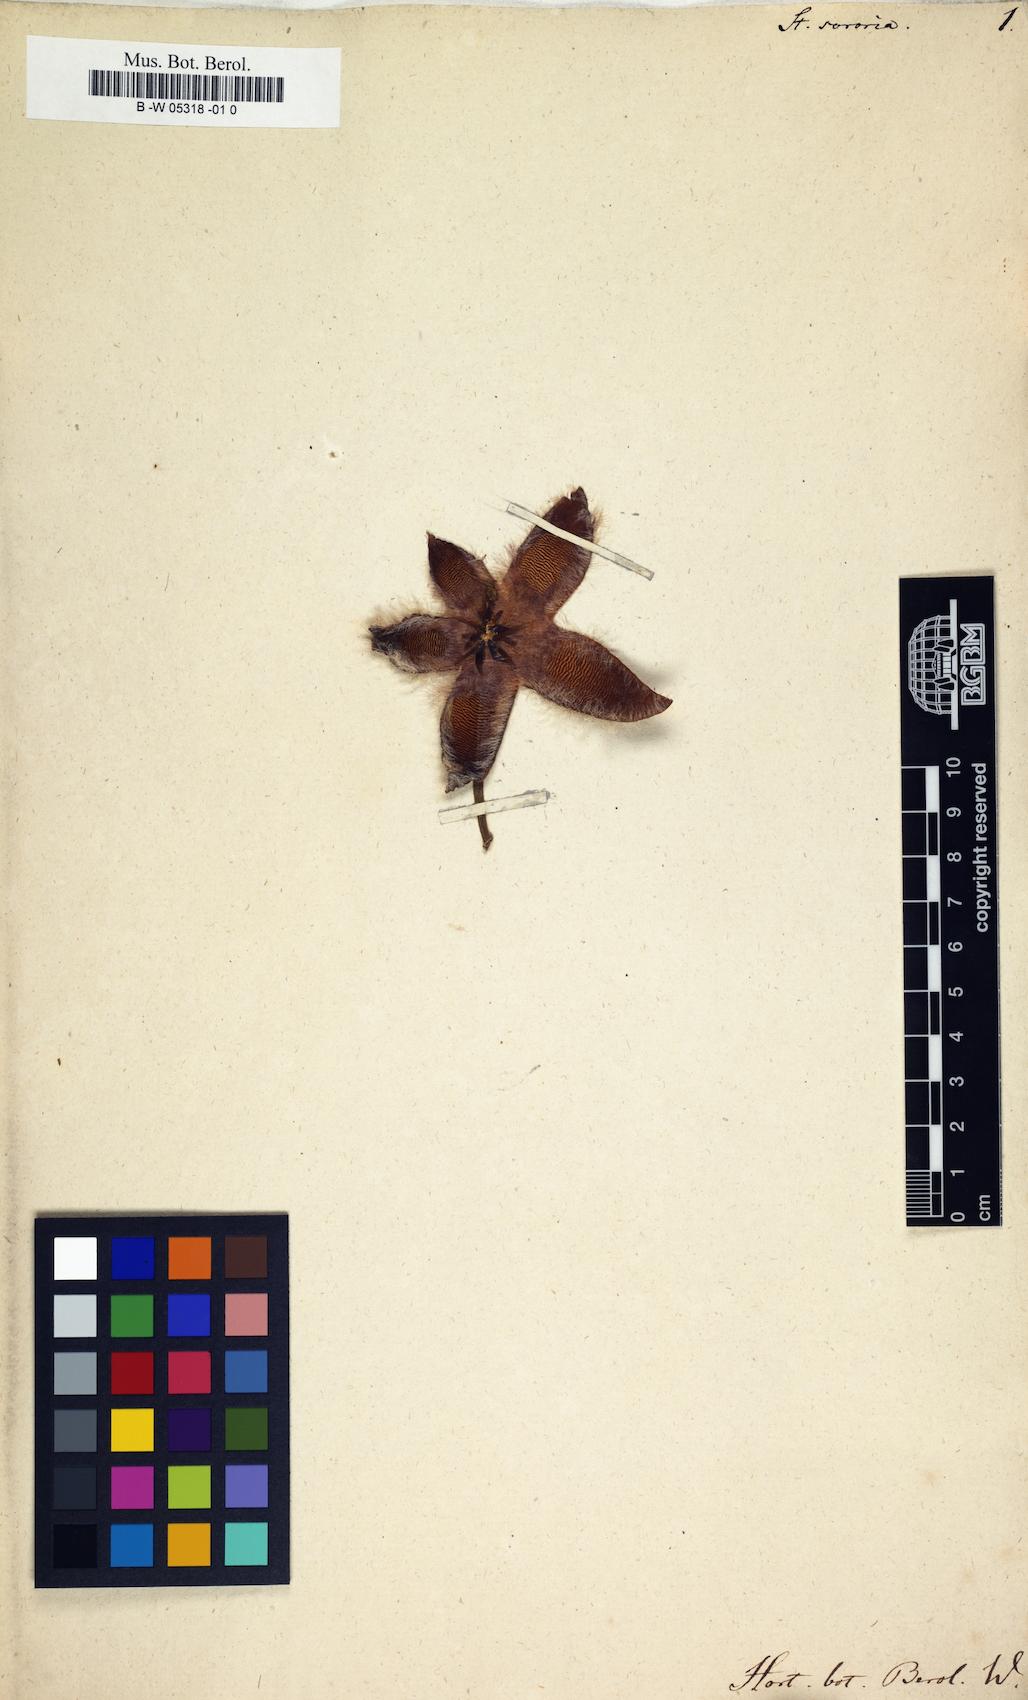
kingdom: Plantae
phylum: Tracheophyta
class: Magnoliopsida
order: Gentianales
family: Apocynaceae
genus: Stapelia
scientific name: Stapelia sororia
